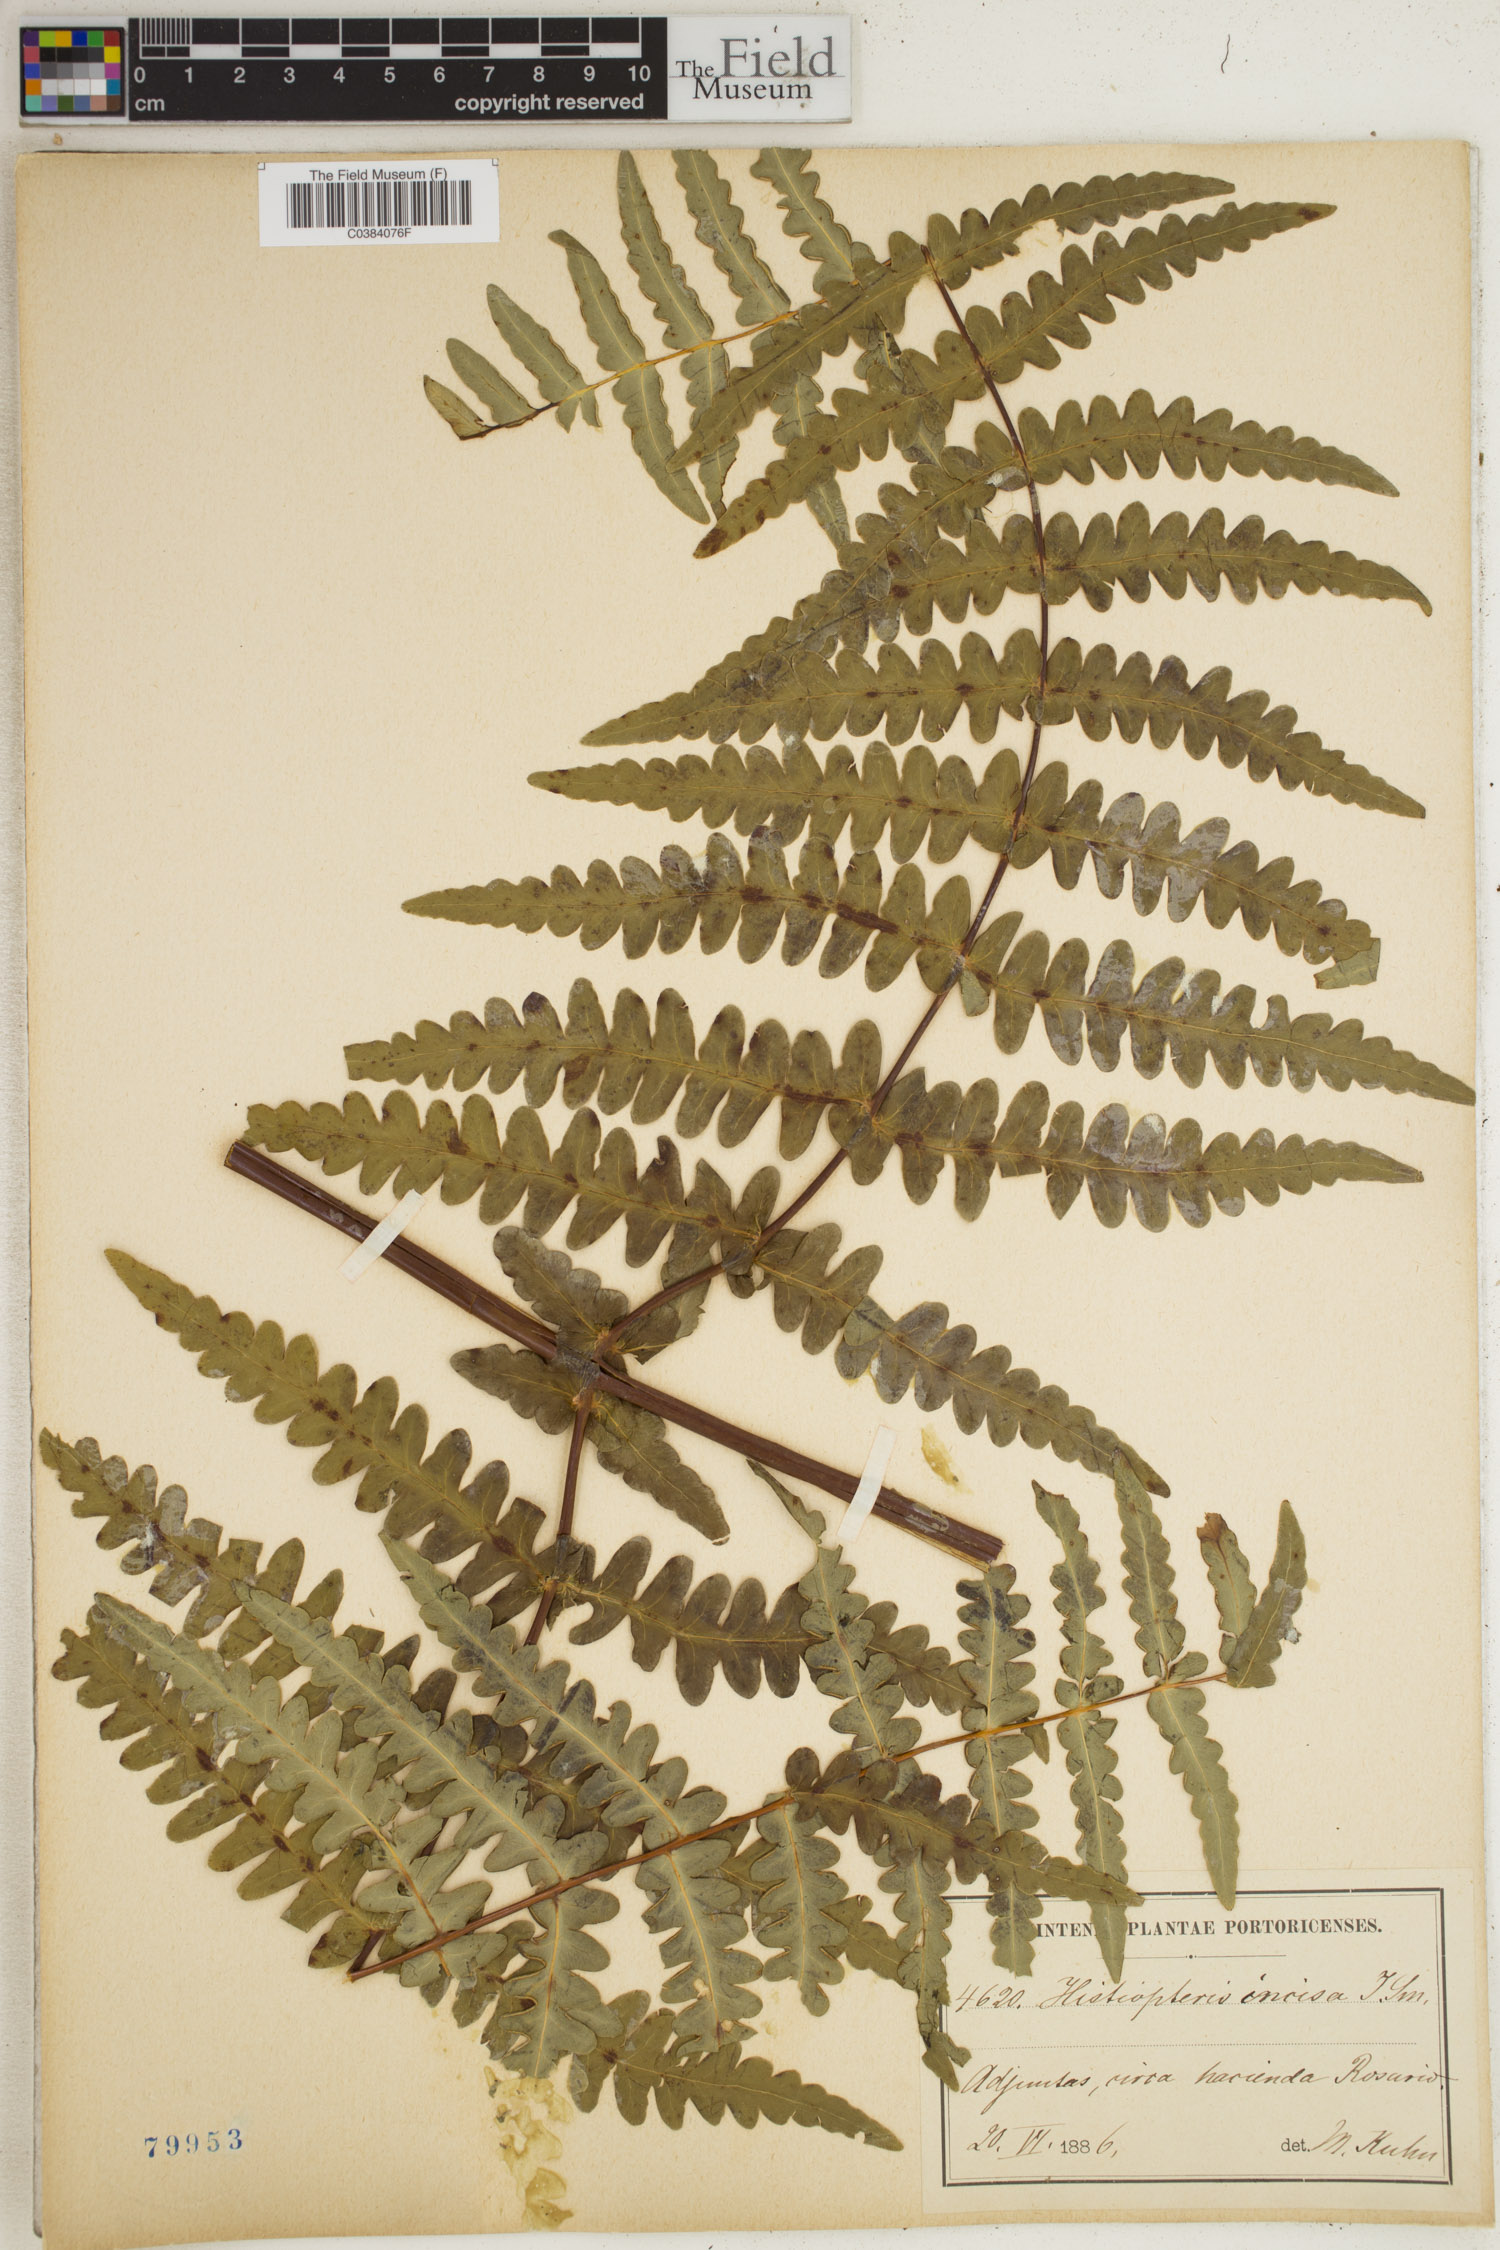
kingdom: Plantae
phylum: Tracheophyta
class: Polypodiopsida
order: Polypodiales
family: Dennstaedtiaceae
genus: Histiopteris
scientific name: Histiopteris incisa
